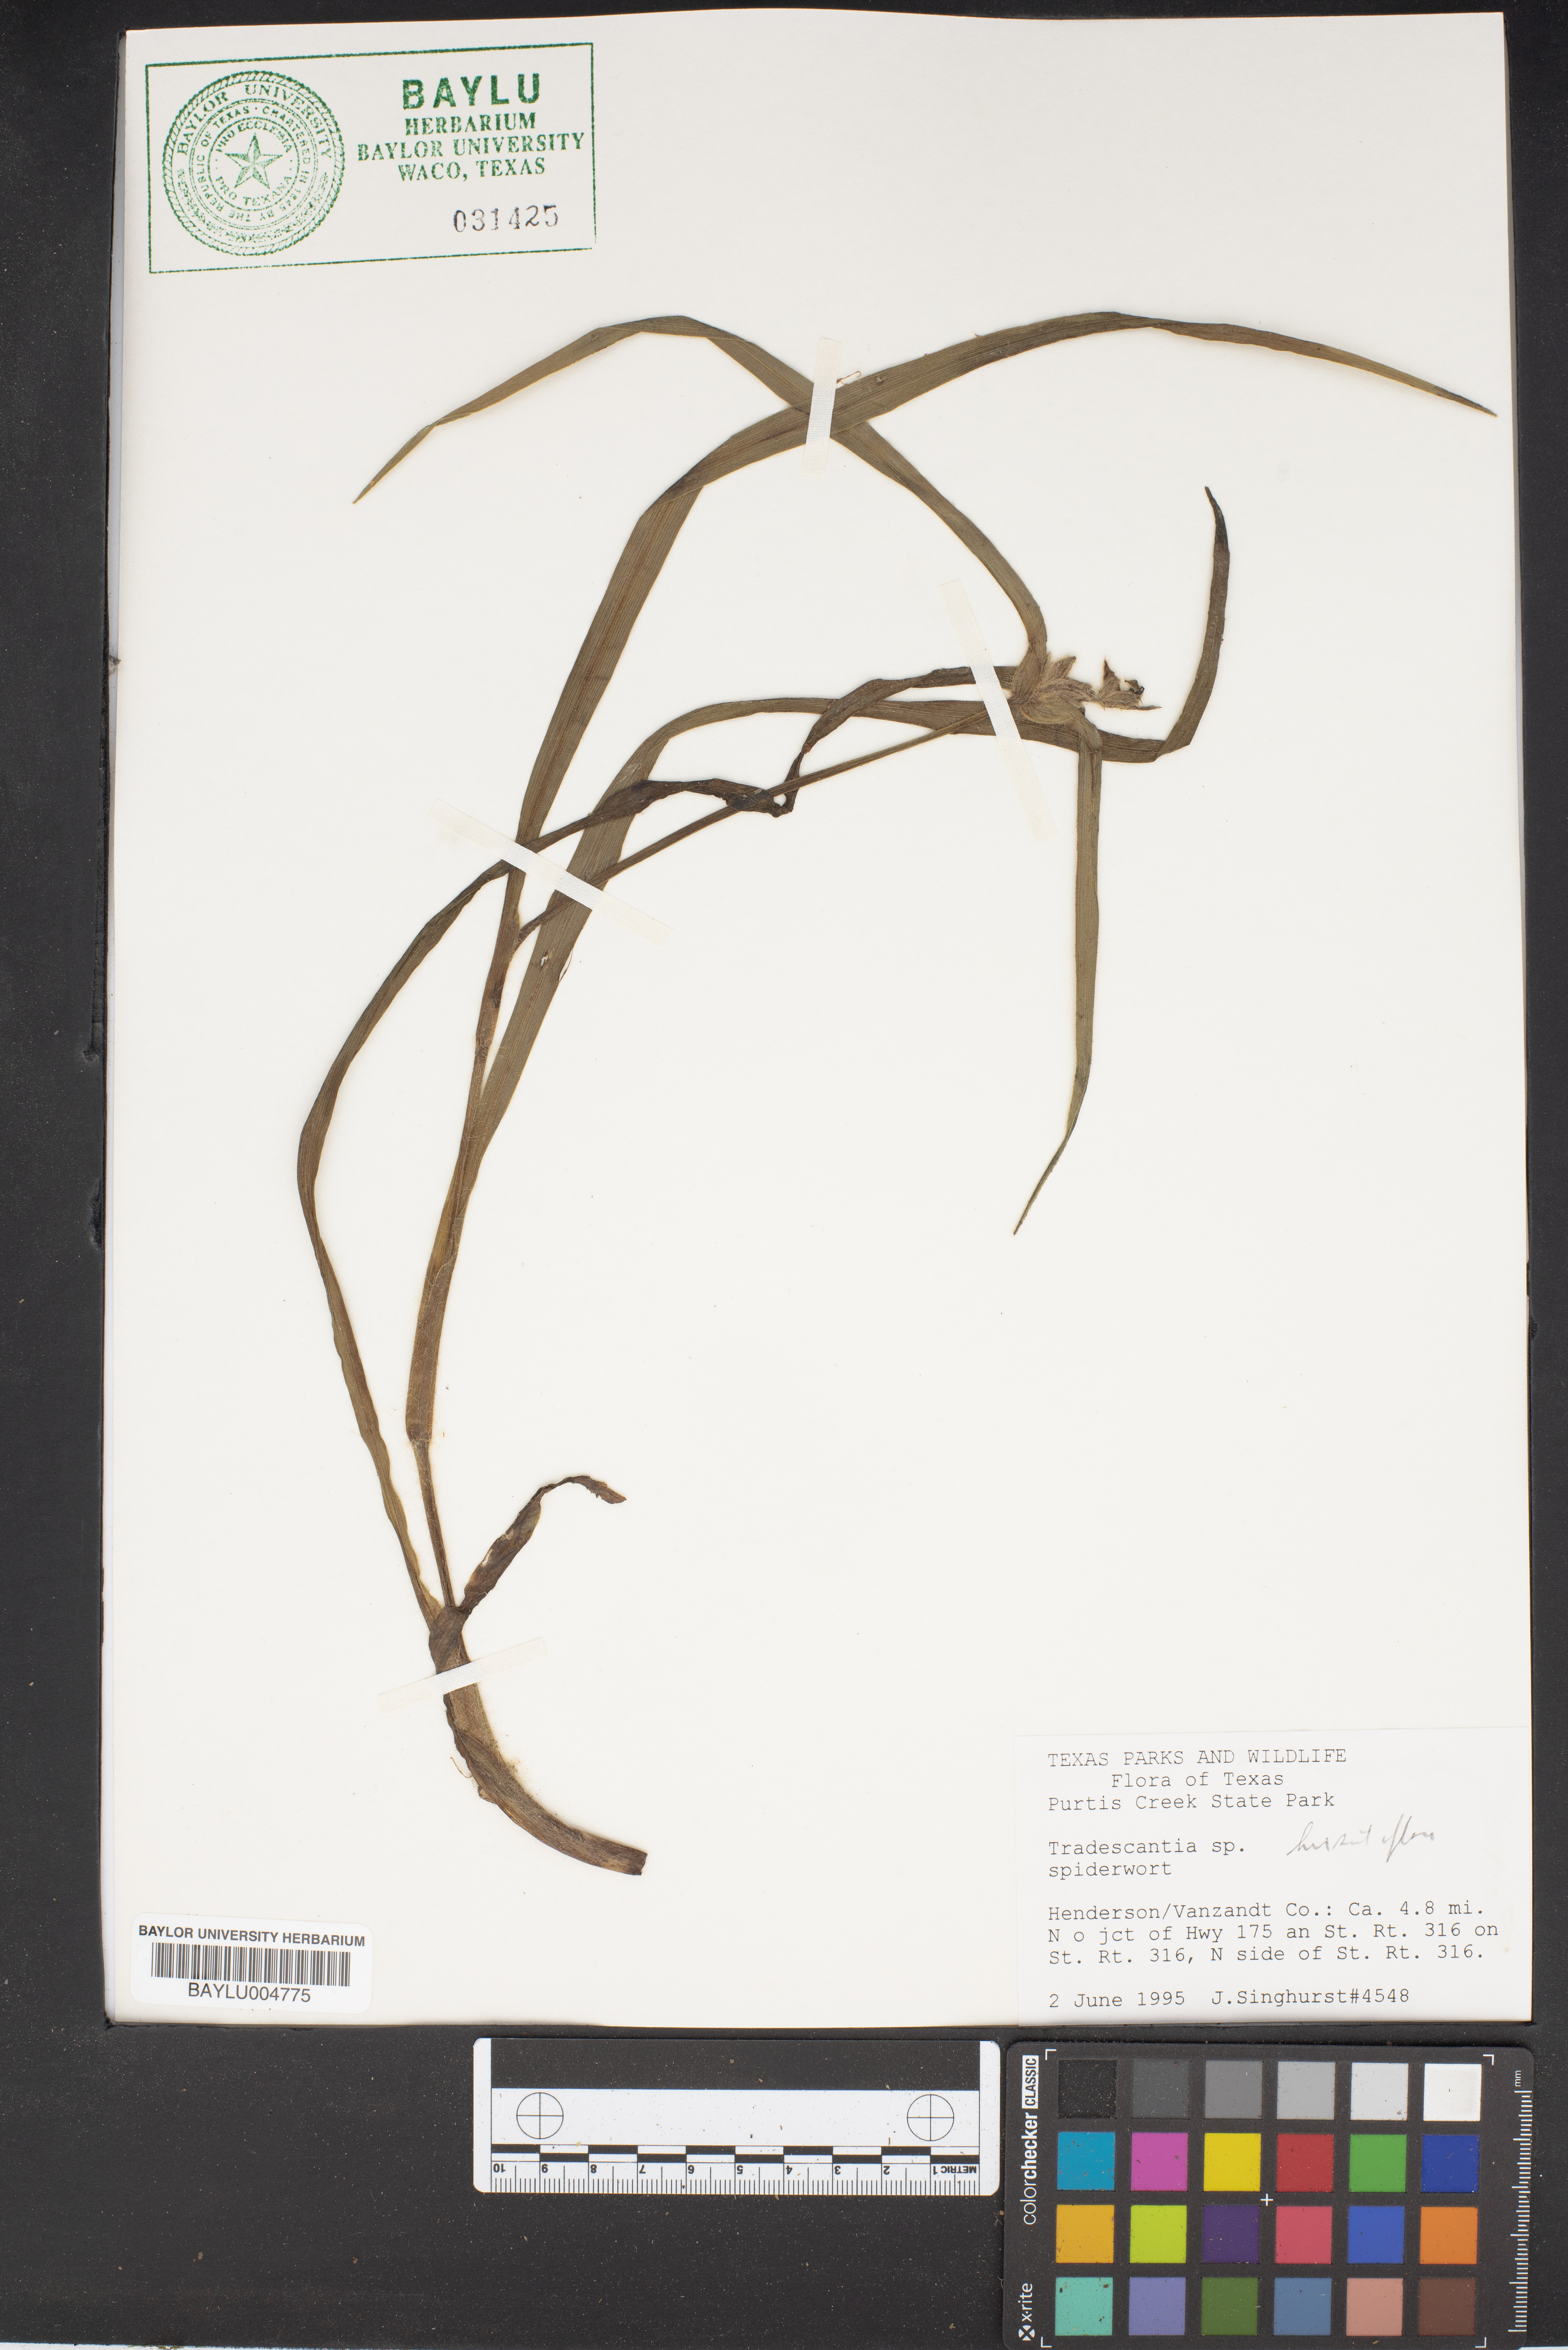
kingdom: Plantae
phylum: Tracheophyta
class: Liliopsida
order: Commelinales
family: Commelinaceae
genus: Tradescantia
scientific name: Tradescantia hirsutiflora
